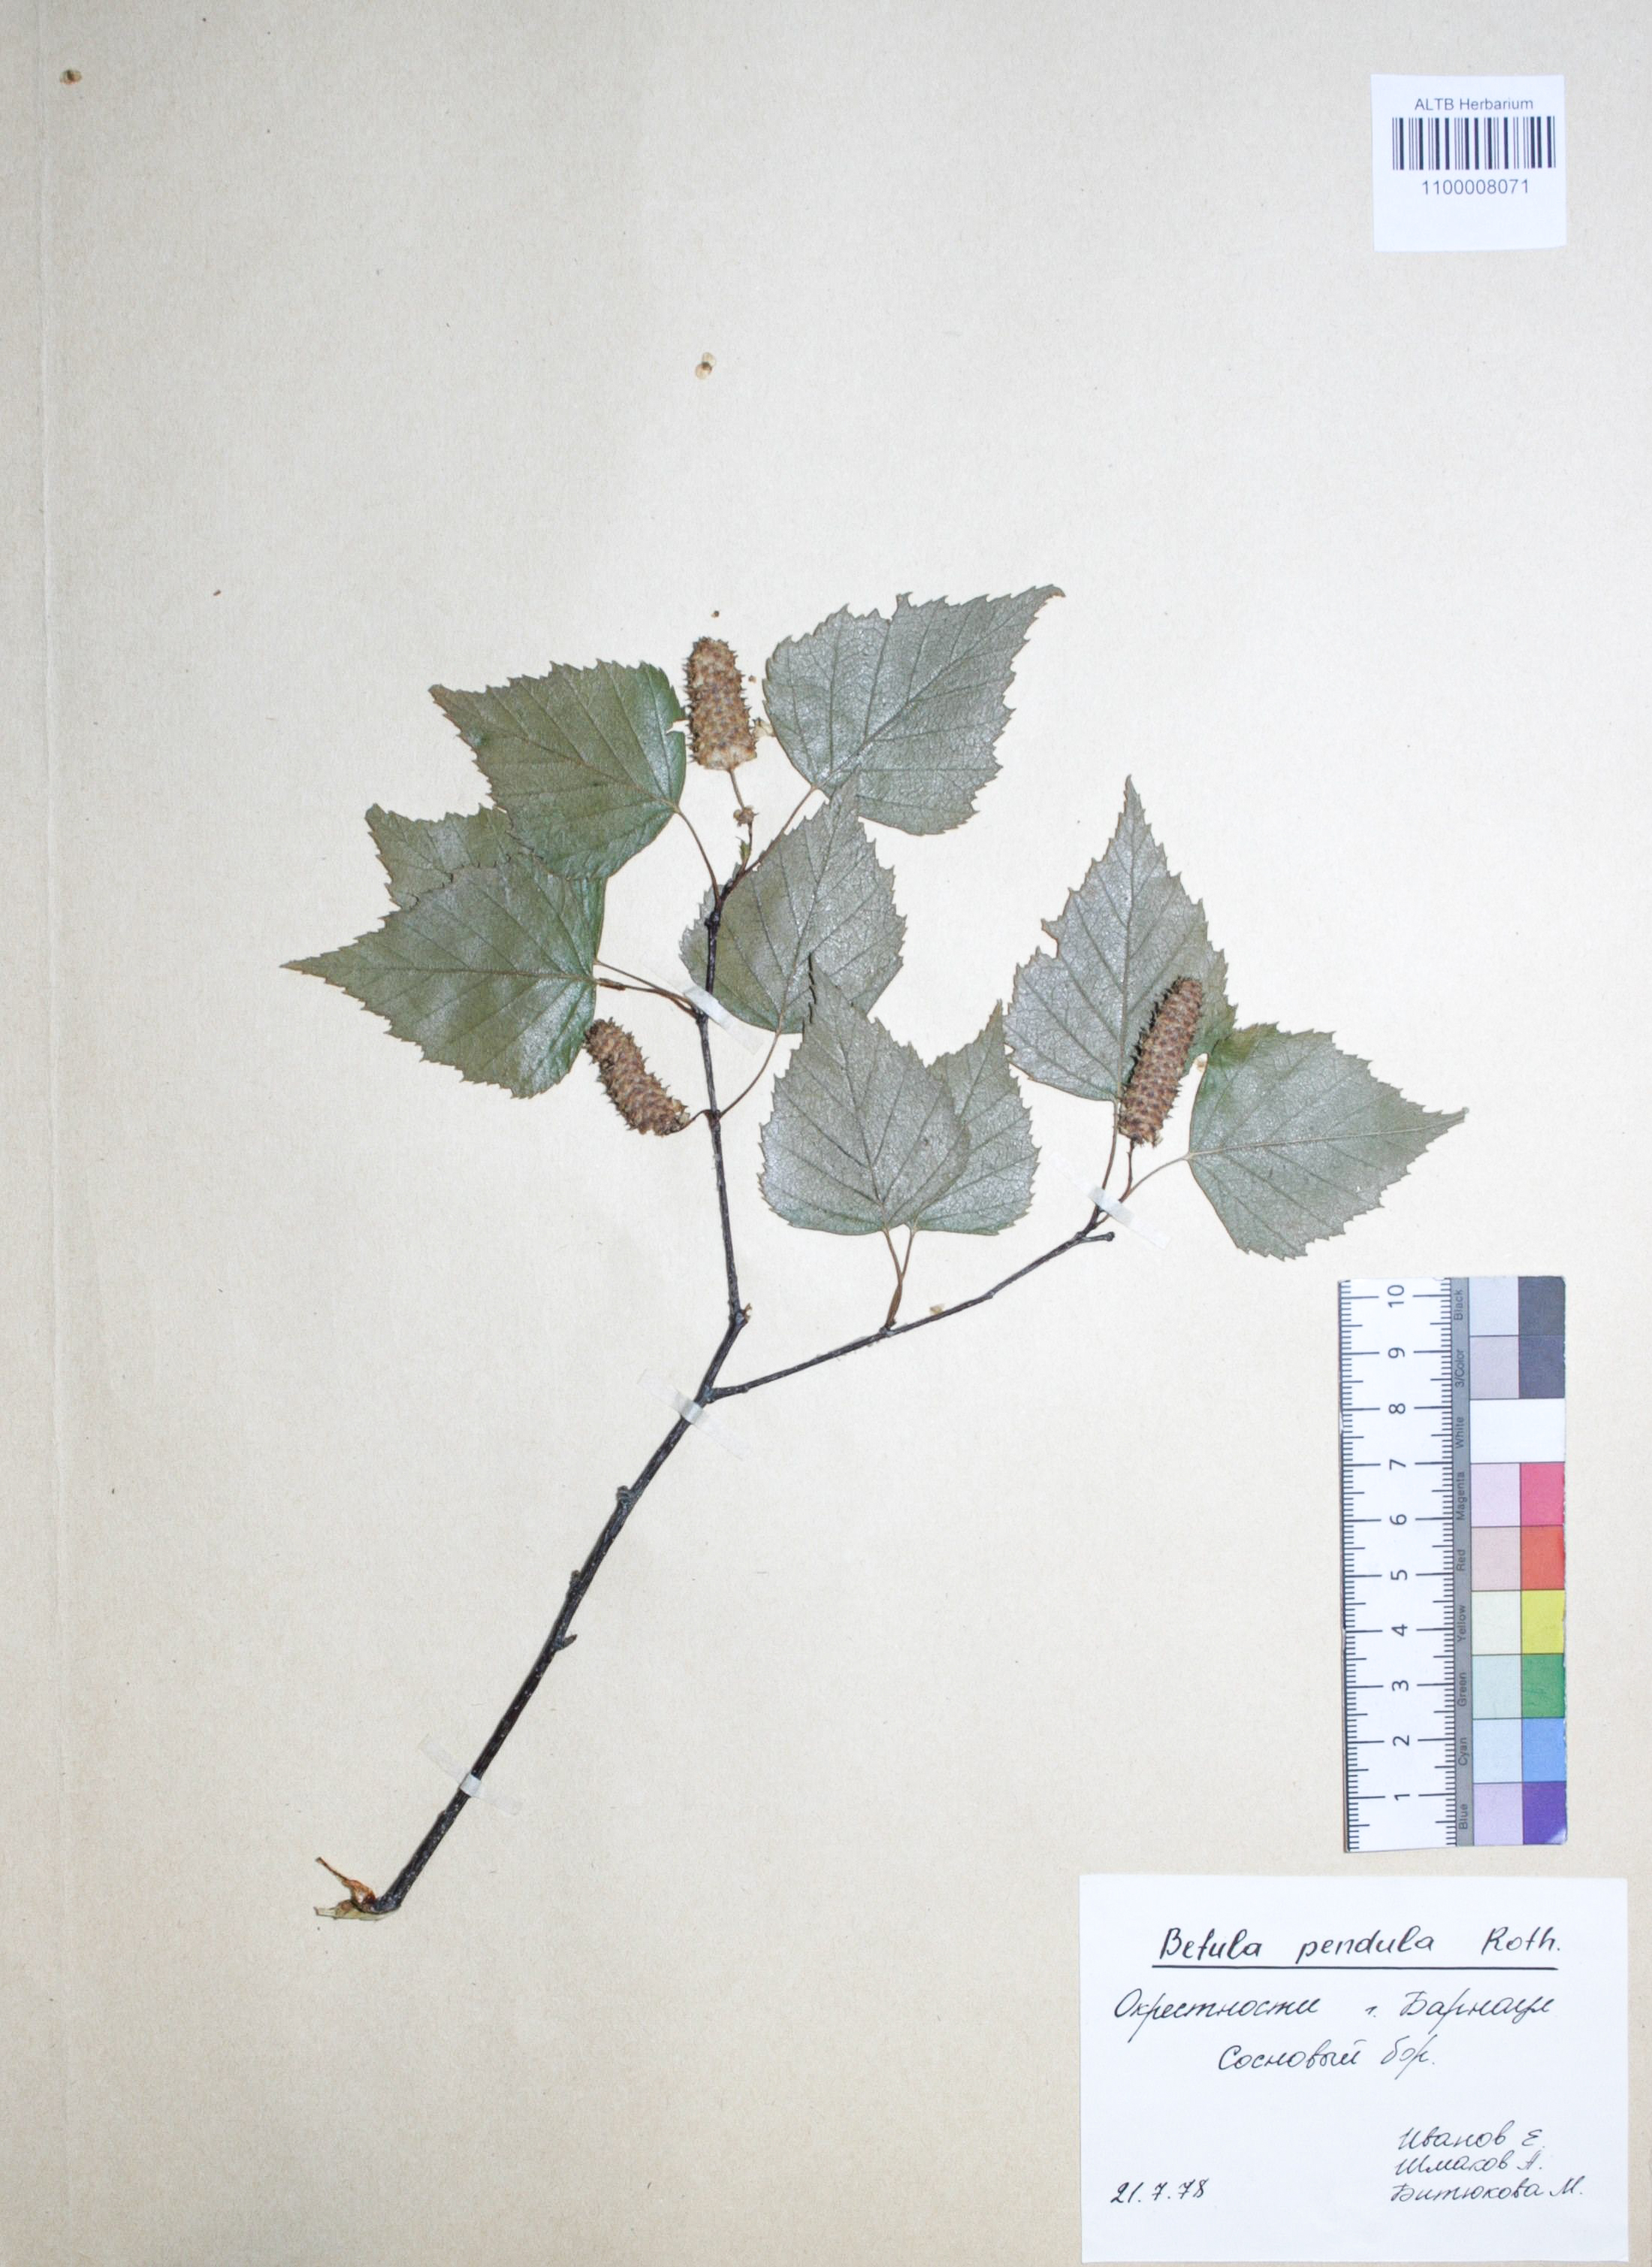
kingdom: Plantae
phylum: Tracheophyta
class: Magnoliopsida
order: Fagales
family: Betulaceae
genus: Betula
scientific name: Betula pendula
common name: Silver birch
